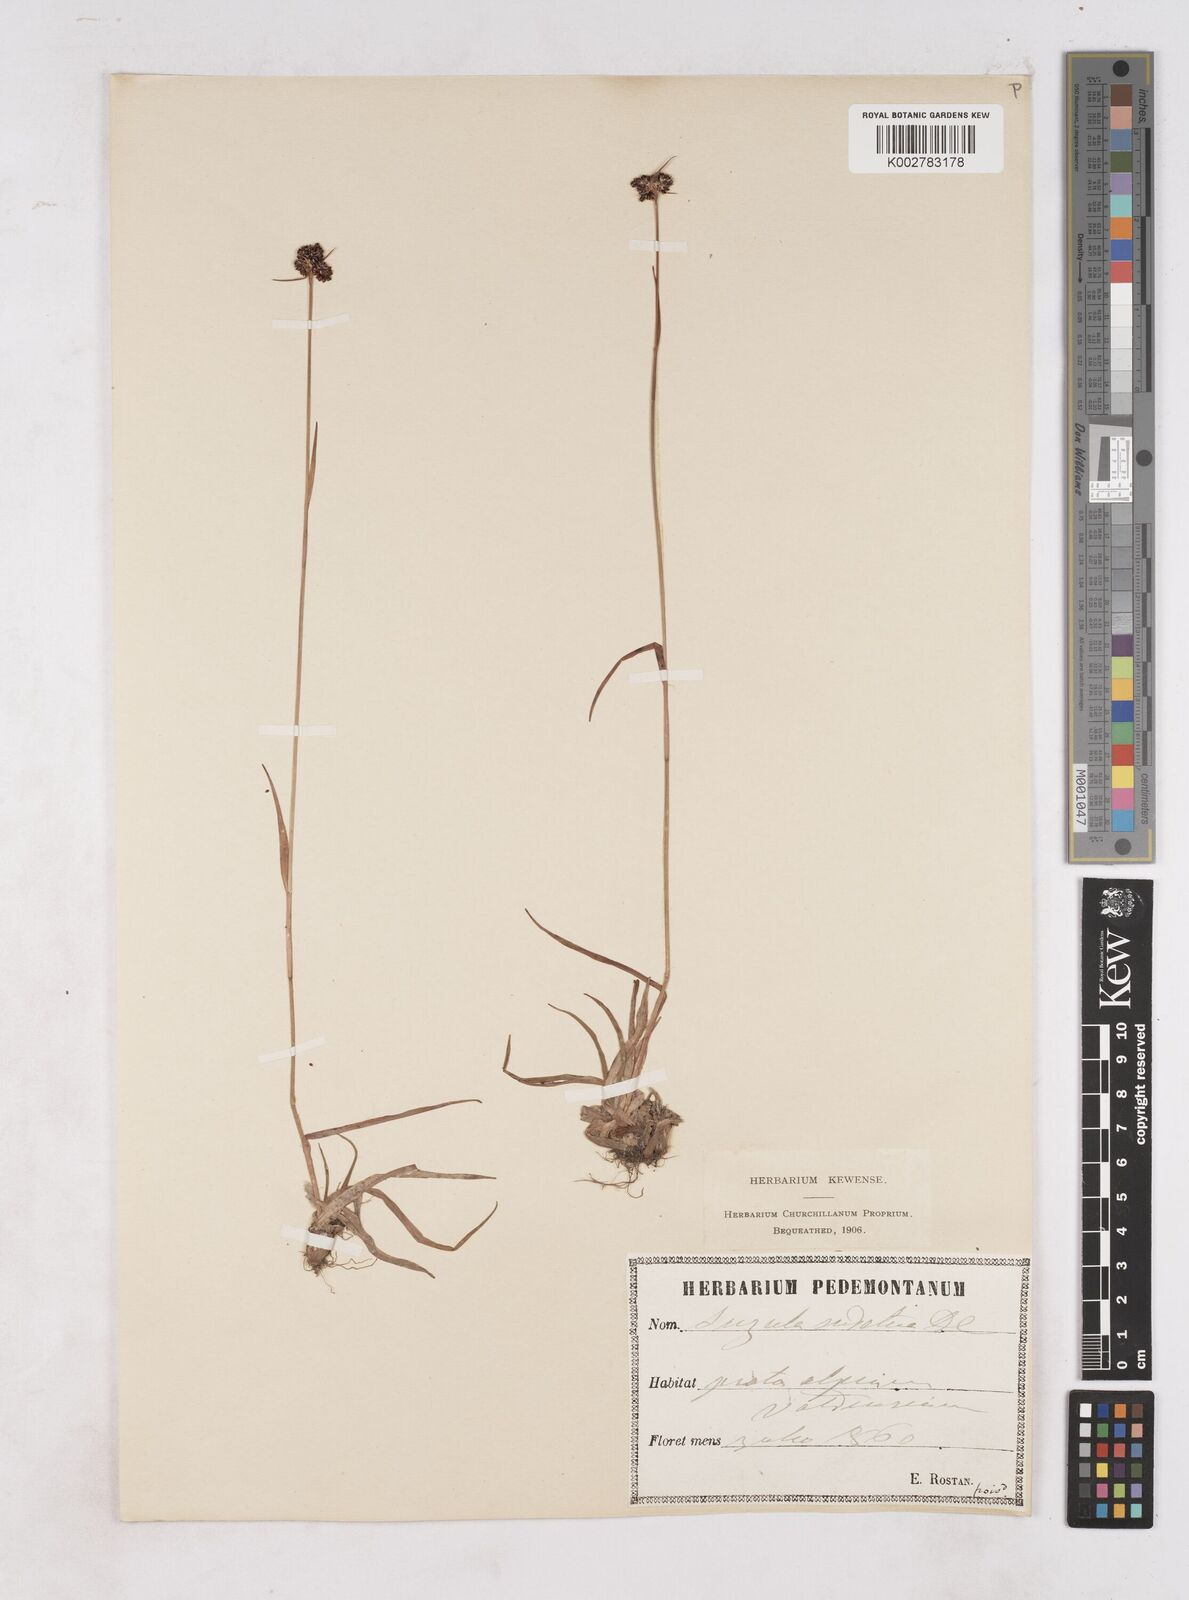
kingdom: Plantae
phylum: Tracheophyta
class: Liliopsida
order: Poales
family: Juncaceae
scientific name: Juncaceae
